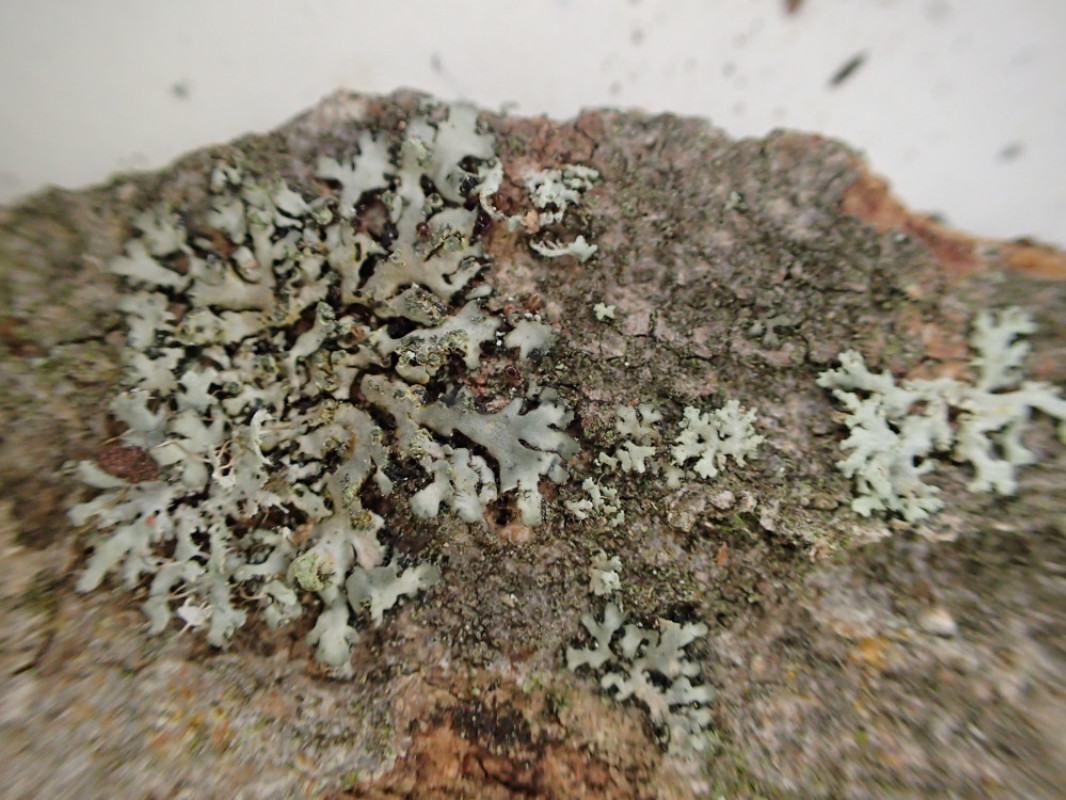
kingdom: Fungi
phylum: Ascomycota
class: Lecanoromycetes
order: Caliciales
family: Physciaceae
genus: Phaeophyscia
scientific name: Phaeophyscia orbicularis
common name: grågrøn rosetlav
